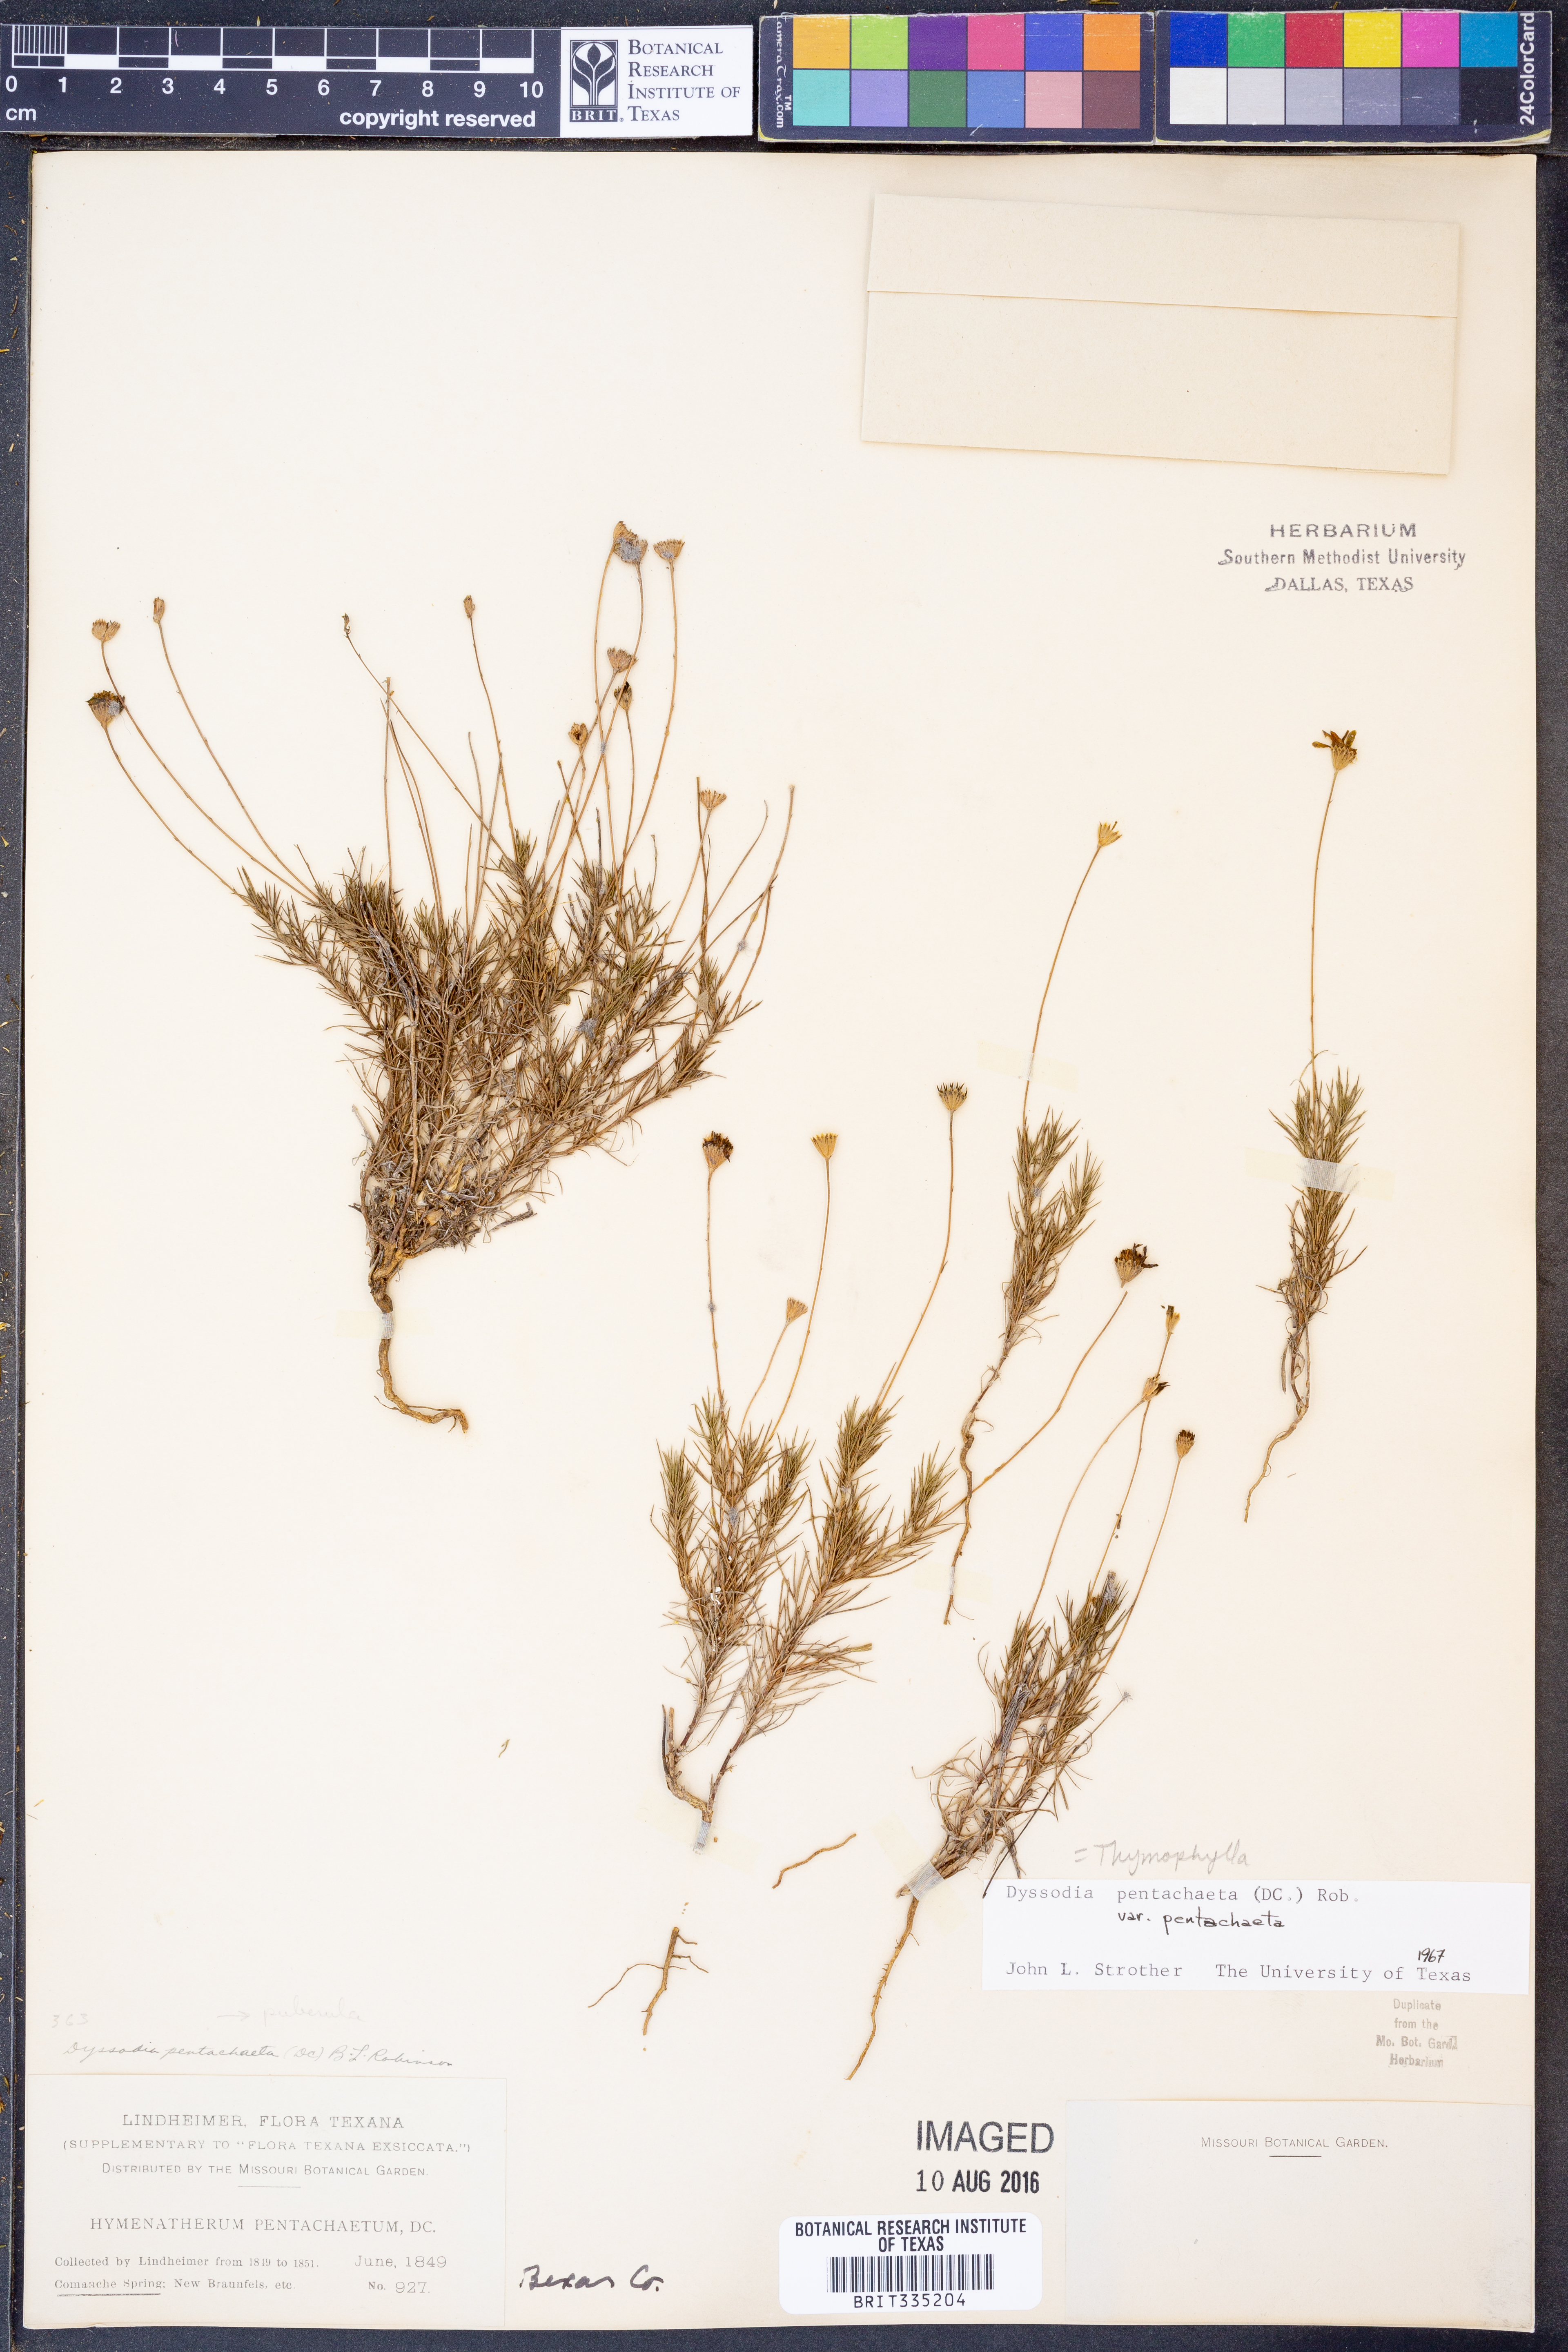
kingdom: Plantae
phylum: Tracheophyta
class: Magnoliopsida
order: Asterales
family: Asteraceae
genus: Thymophylla
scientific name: Thymophylla pentachaeta
